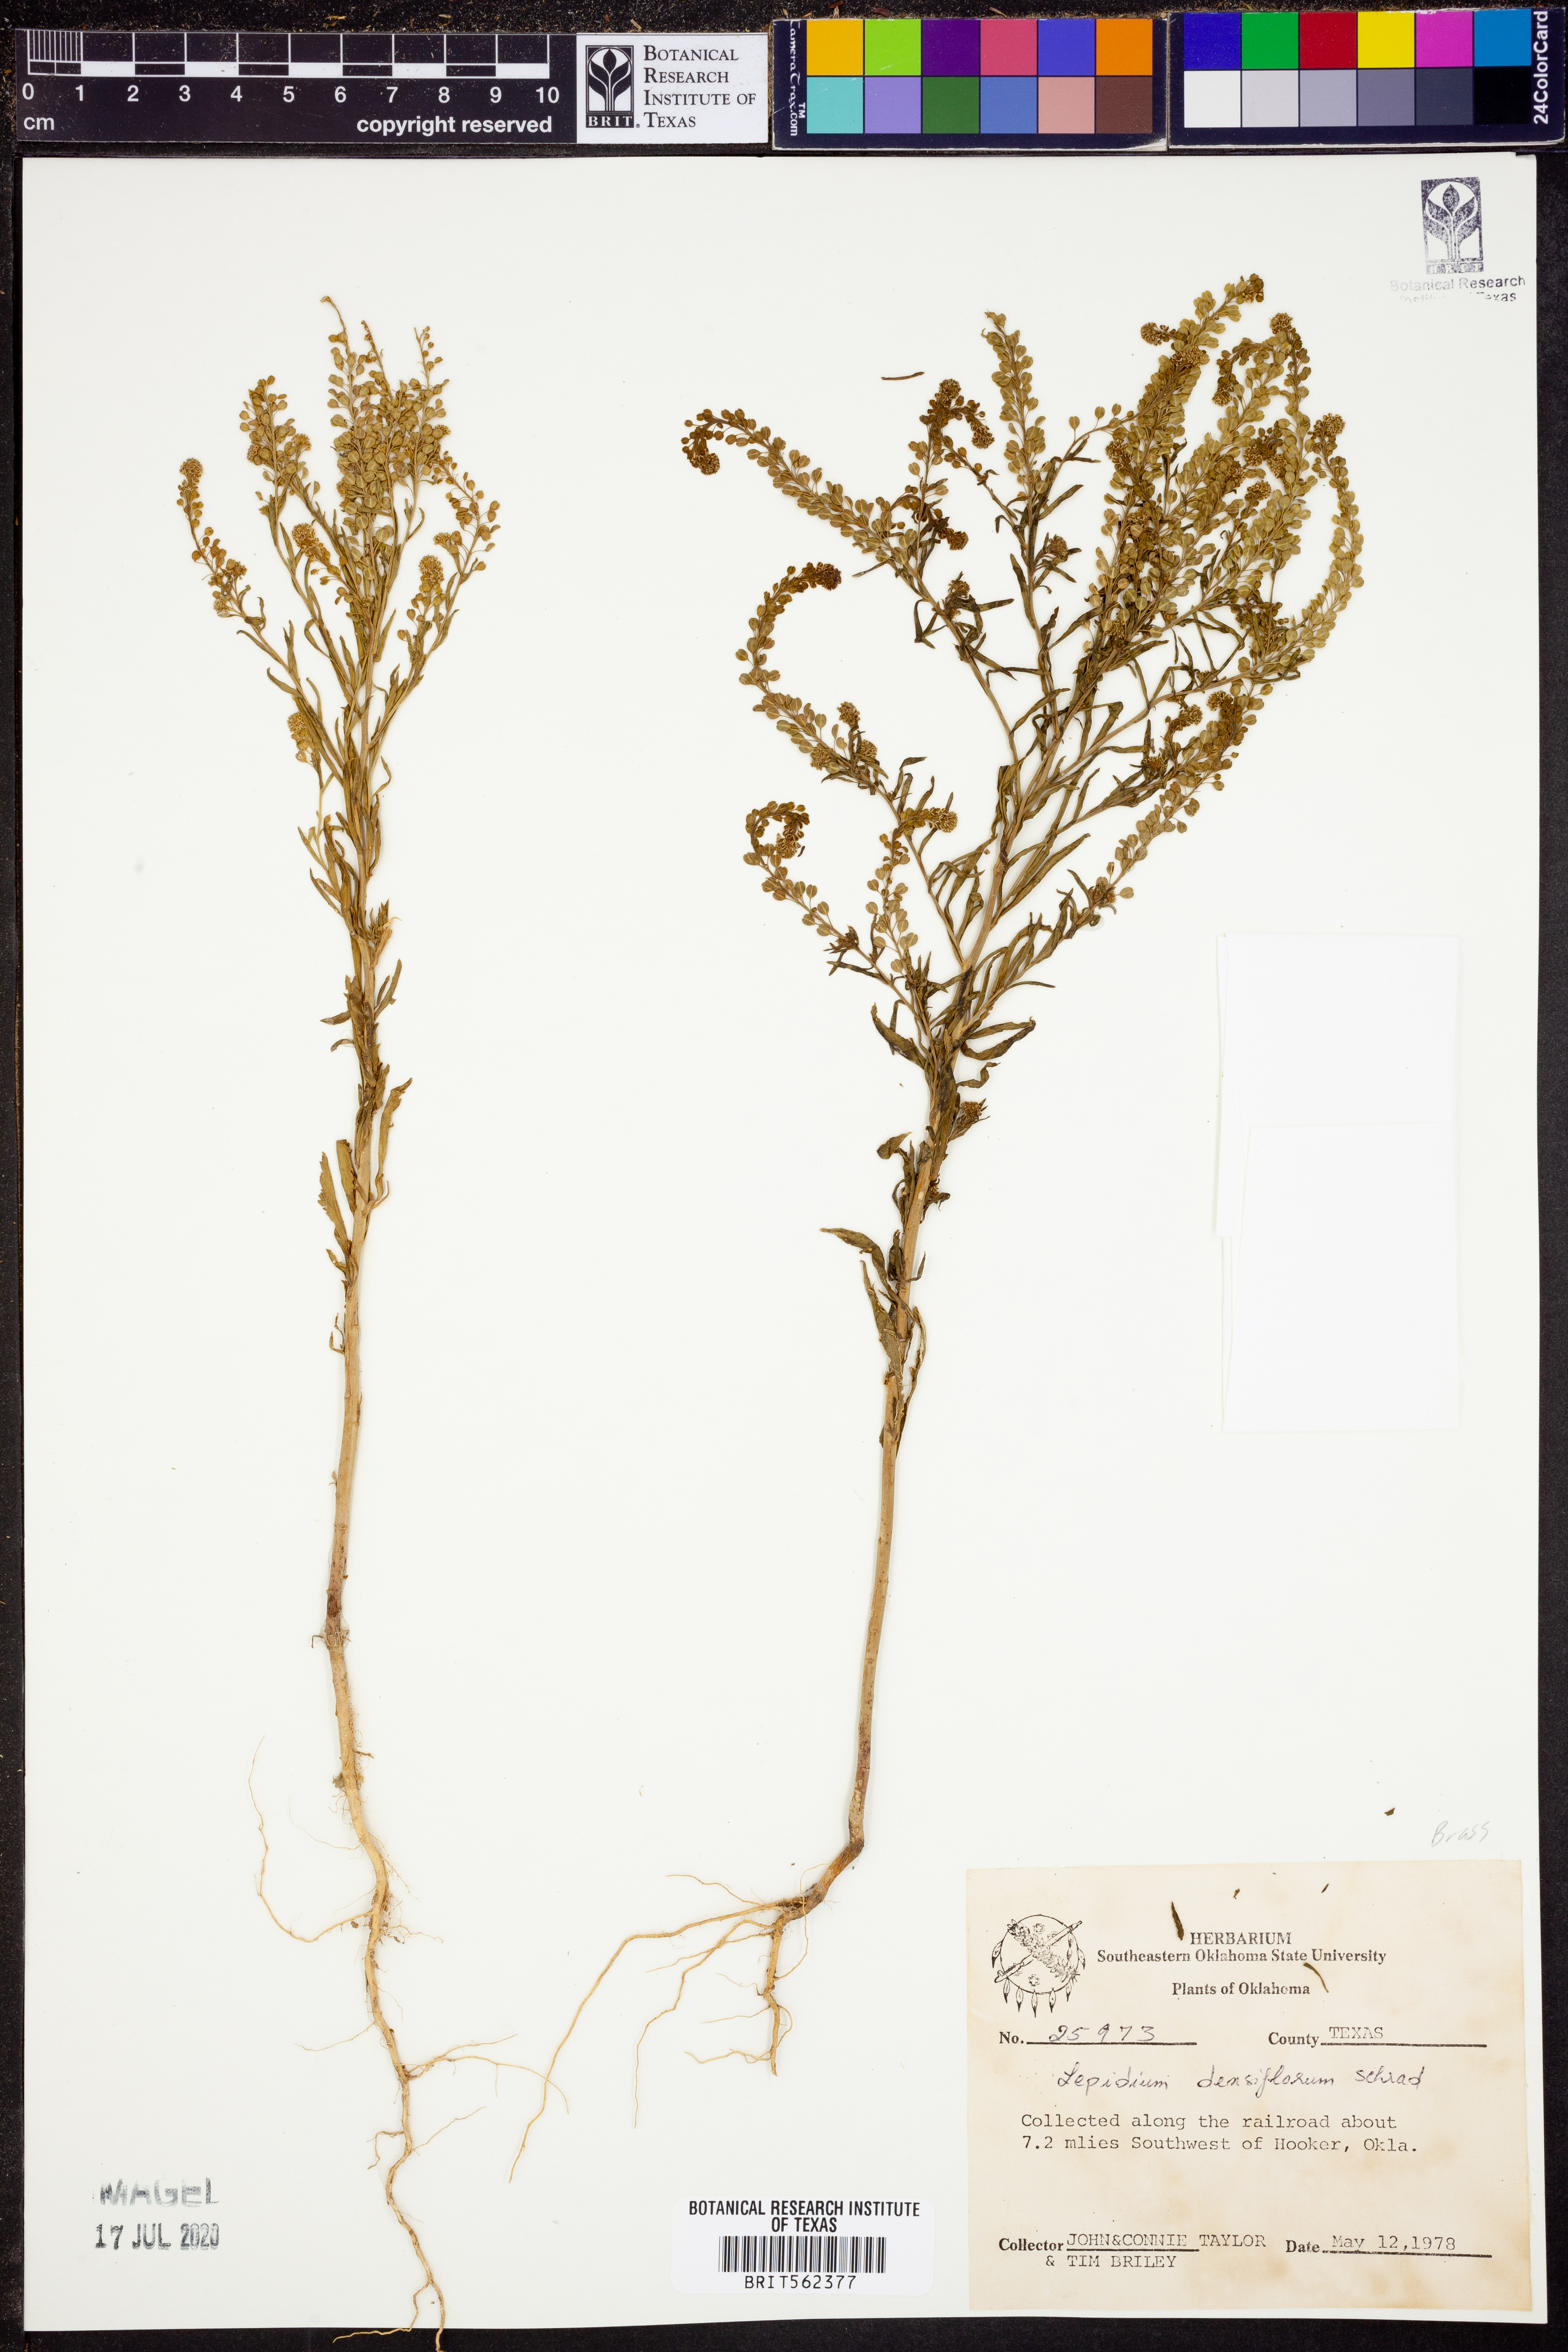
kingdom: Plantae
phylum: Tracheophyta
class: Magnoliopsida
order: Brassicales
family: Brassicaceae
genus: Lepidium
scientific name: Lepidium densiflorum
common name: Miner's pepperwort
